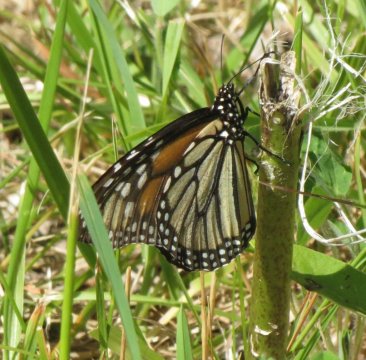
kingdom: Animalia
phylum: Arthropoda
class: Insecta
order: Lepidoptera
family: Nymphalidae
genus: Danaus
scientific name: Danaus plexippus
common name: Monarch
